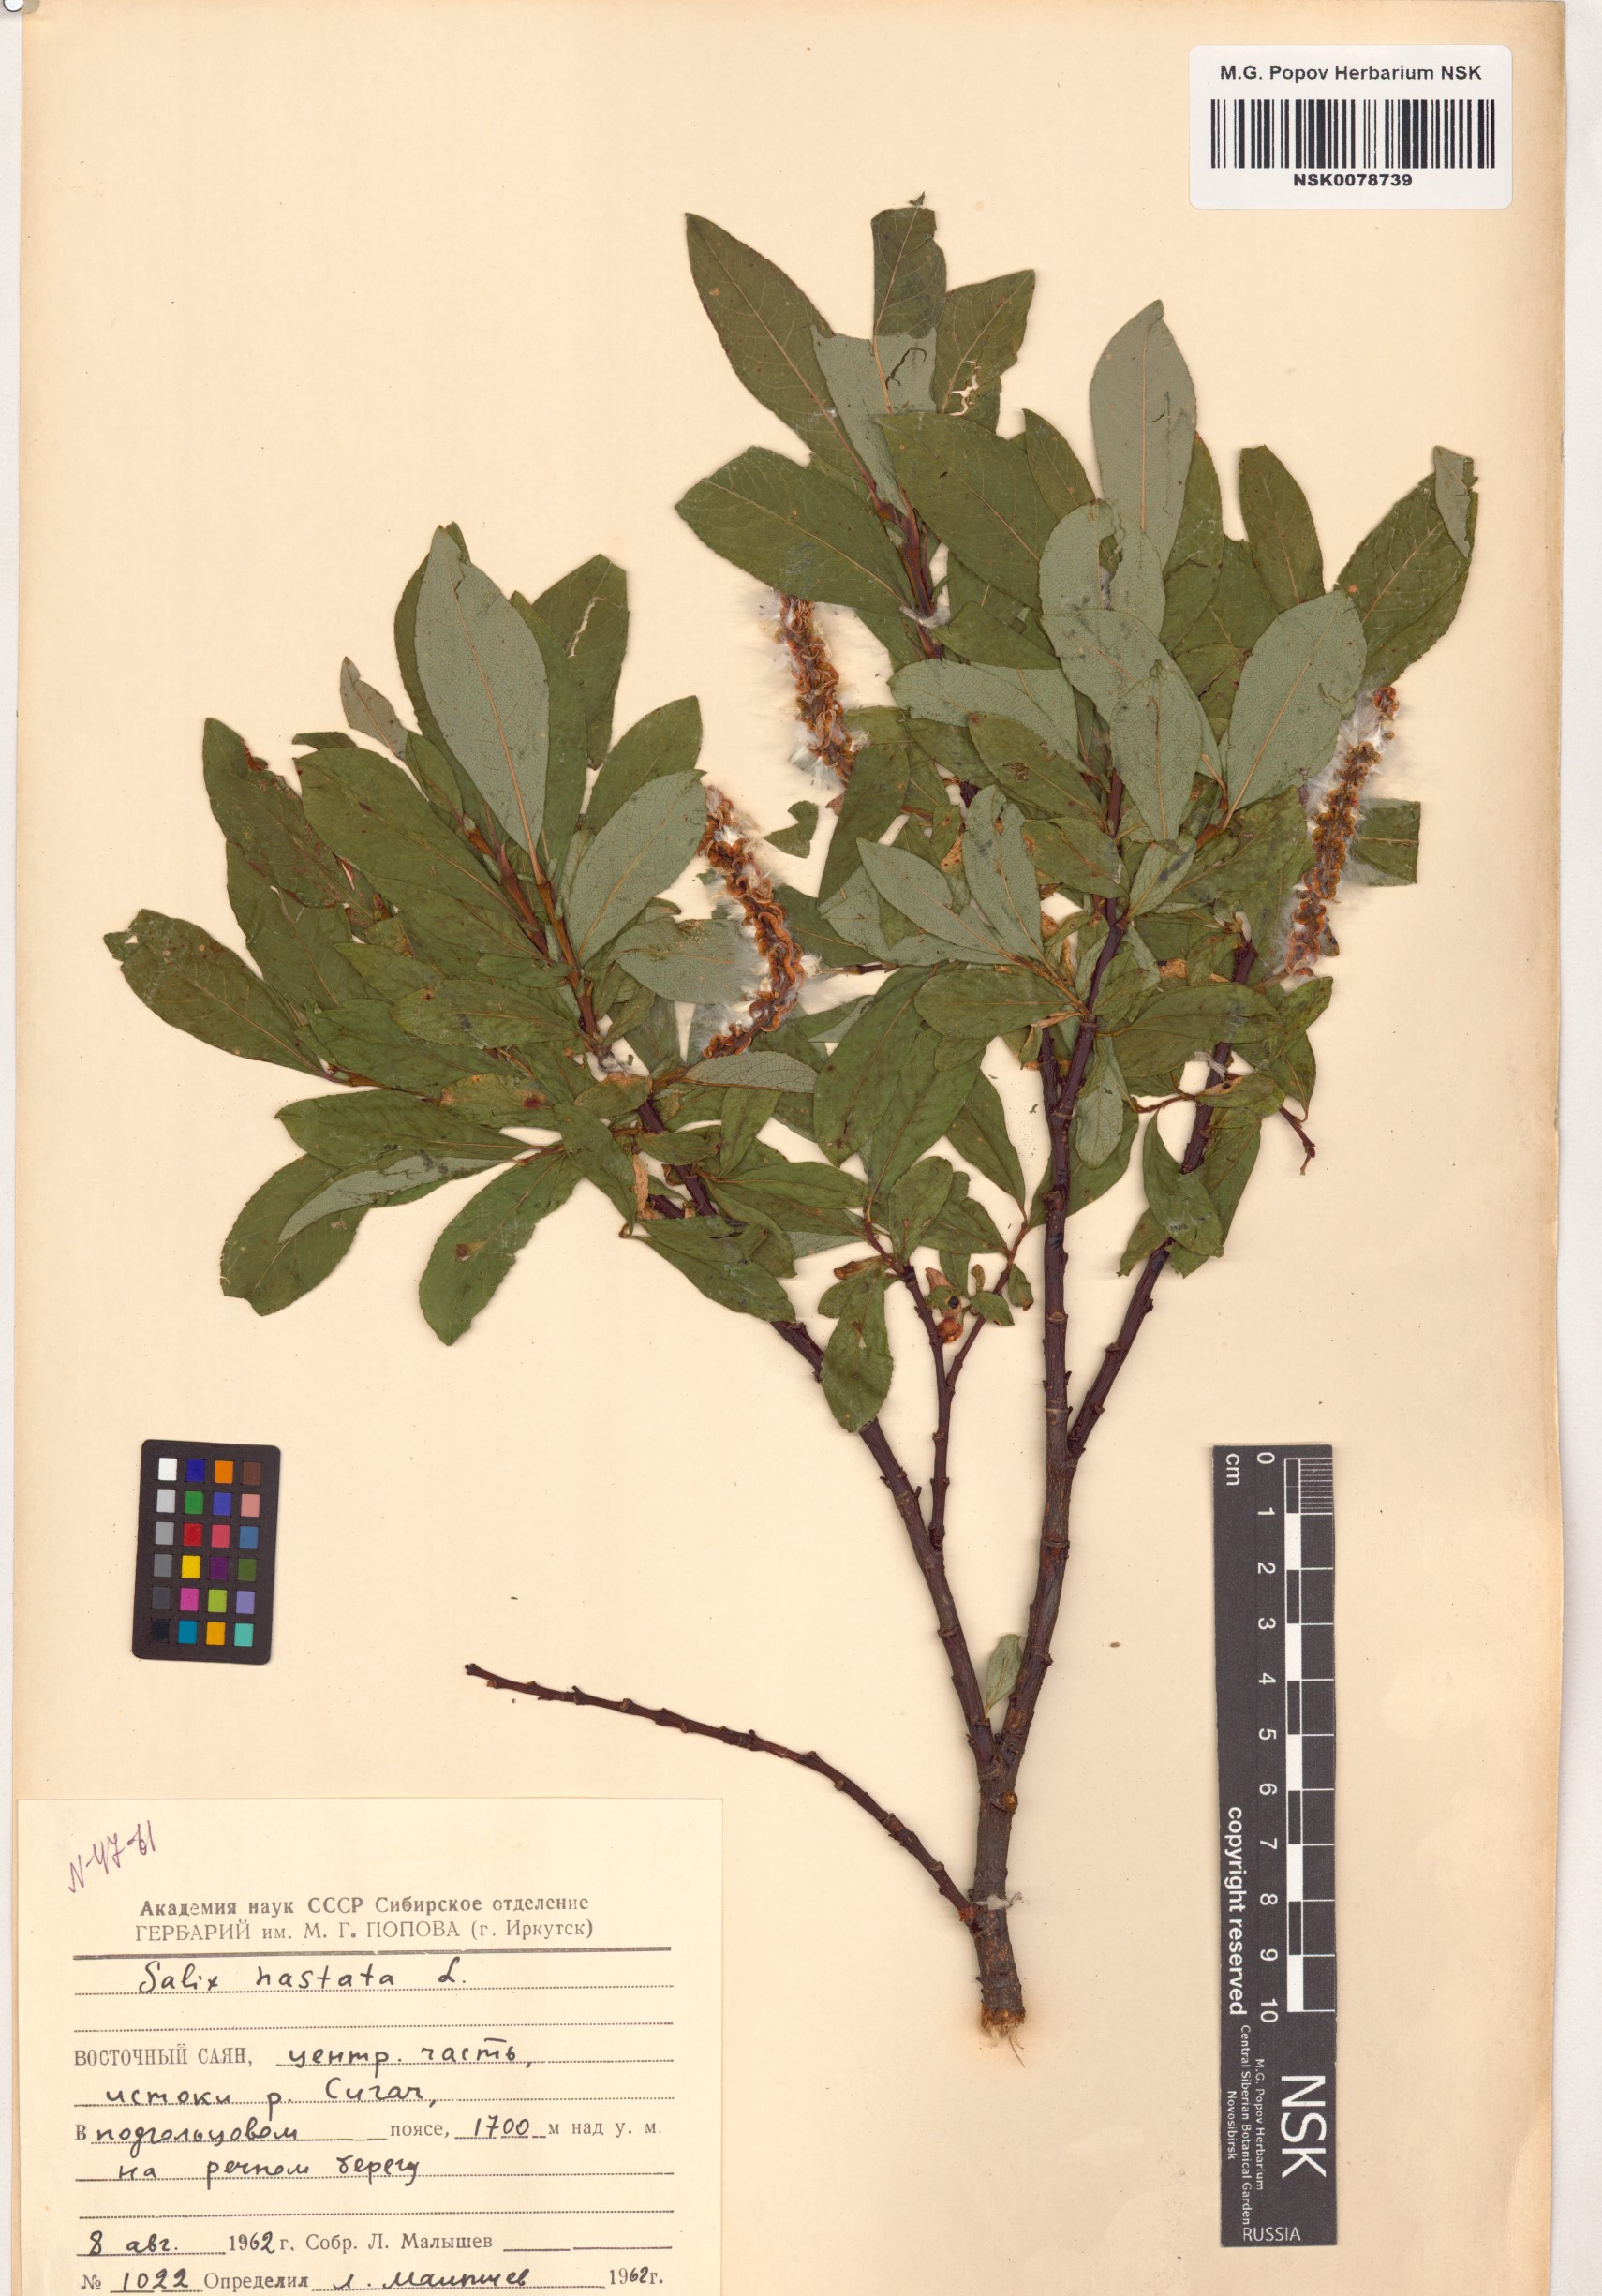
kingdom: Plantae
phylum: Tracheophyta
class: Magnoliopsida
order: Malpighiales
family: Salicaceae
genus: Salix
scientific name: Salix hastata
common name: Halberd willow
